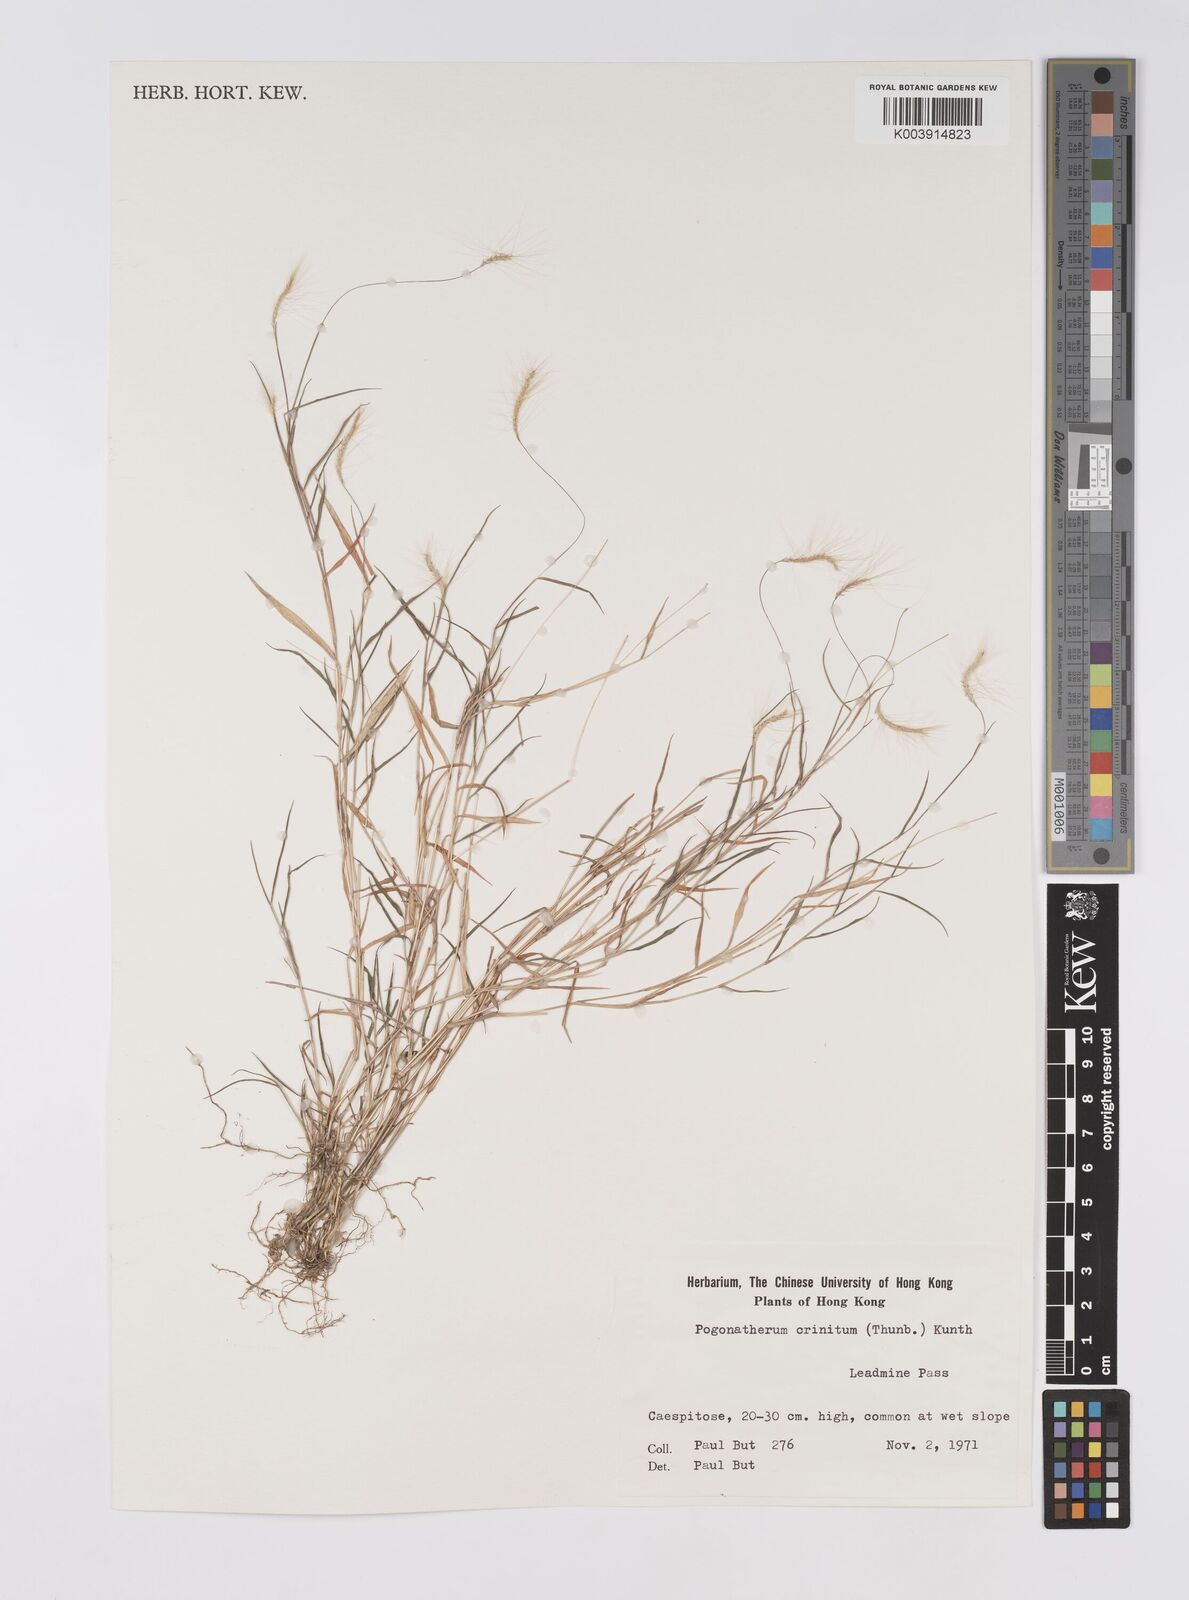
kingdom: Plantae
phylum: Tracheophyta
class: Liliopsida
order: Poales
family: Poaceae
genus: Pogonatherum
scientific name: Pogonatherum crinitum
